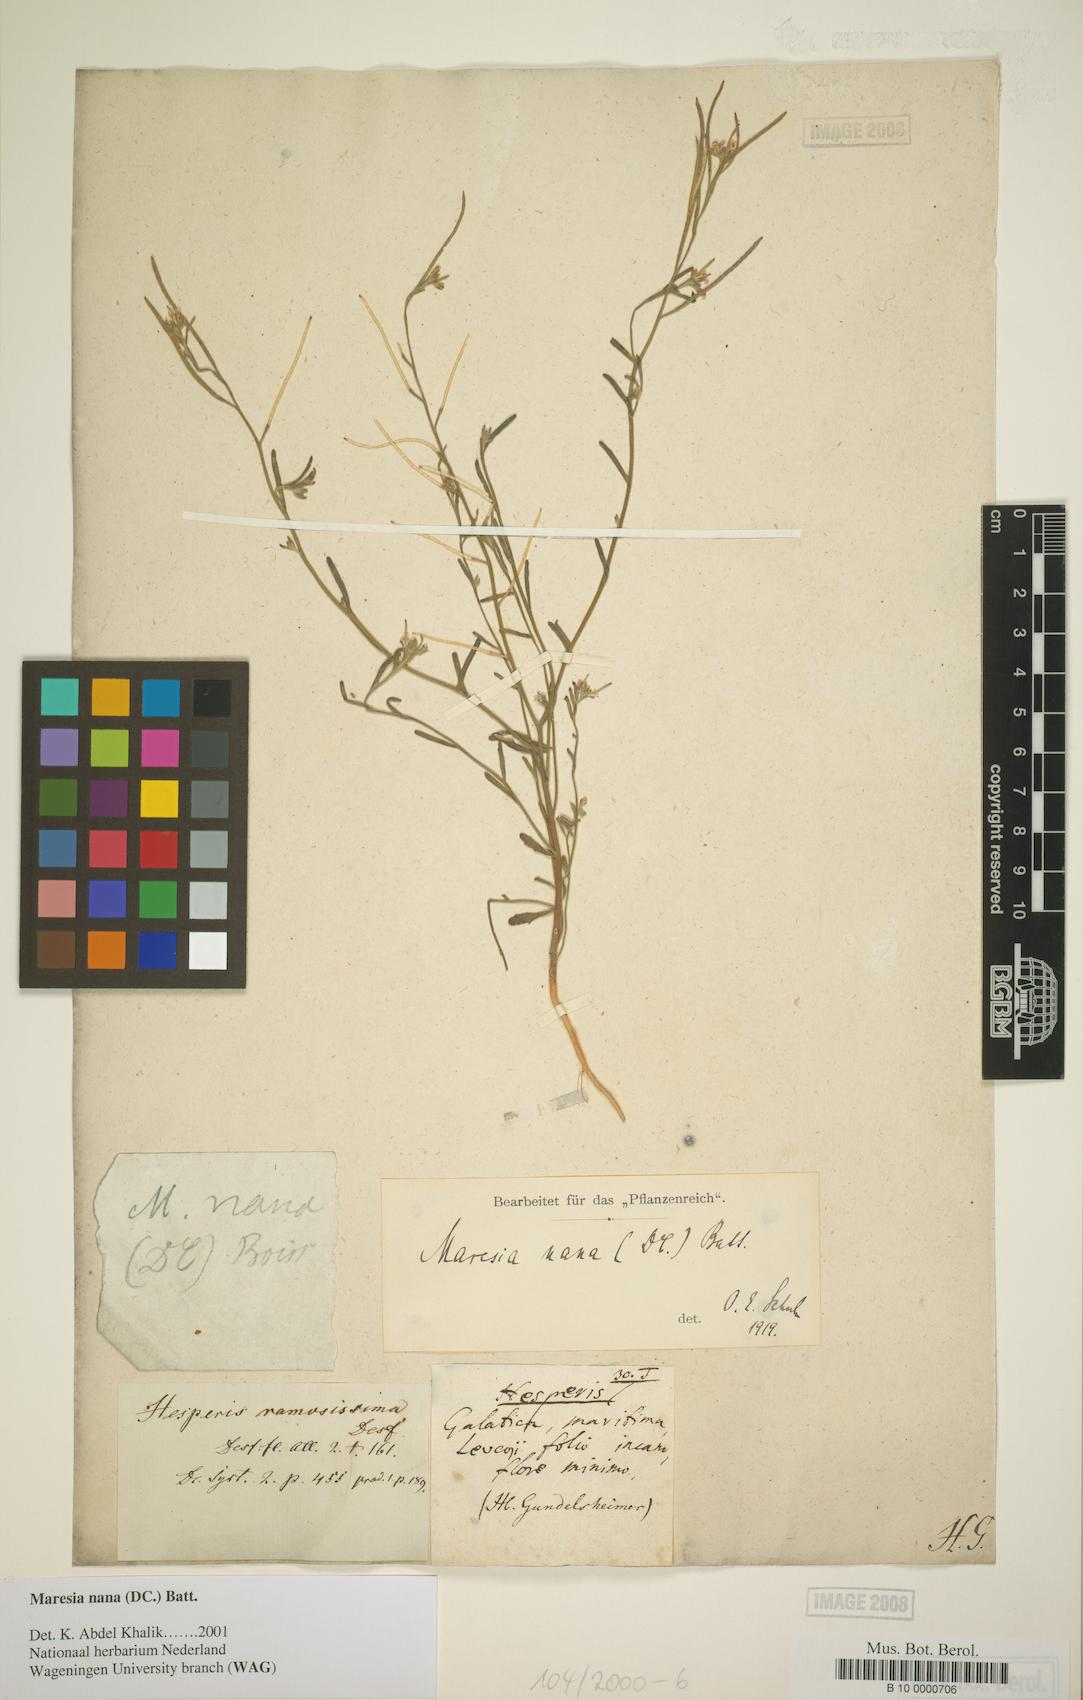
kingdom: Plantae
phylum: Tracheophyta
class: Magnoliopsida
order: Brassicales
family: Brassicaceae
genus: Maresia
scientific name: Maresia nana
